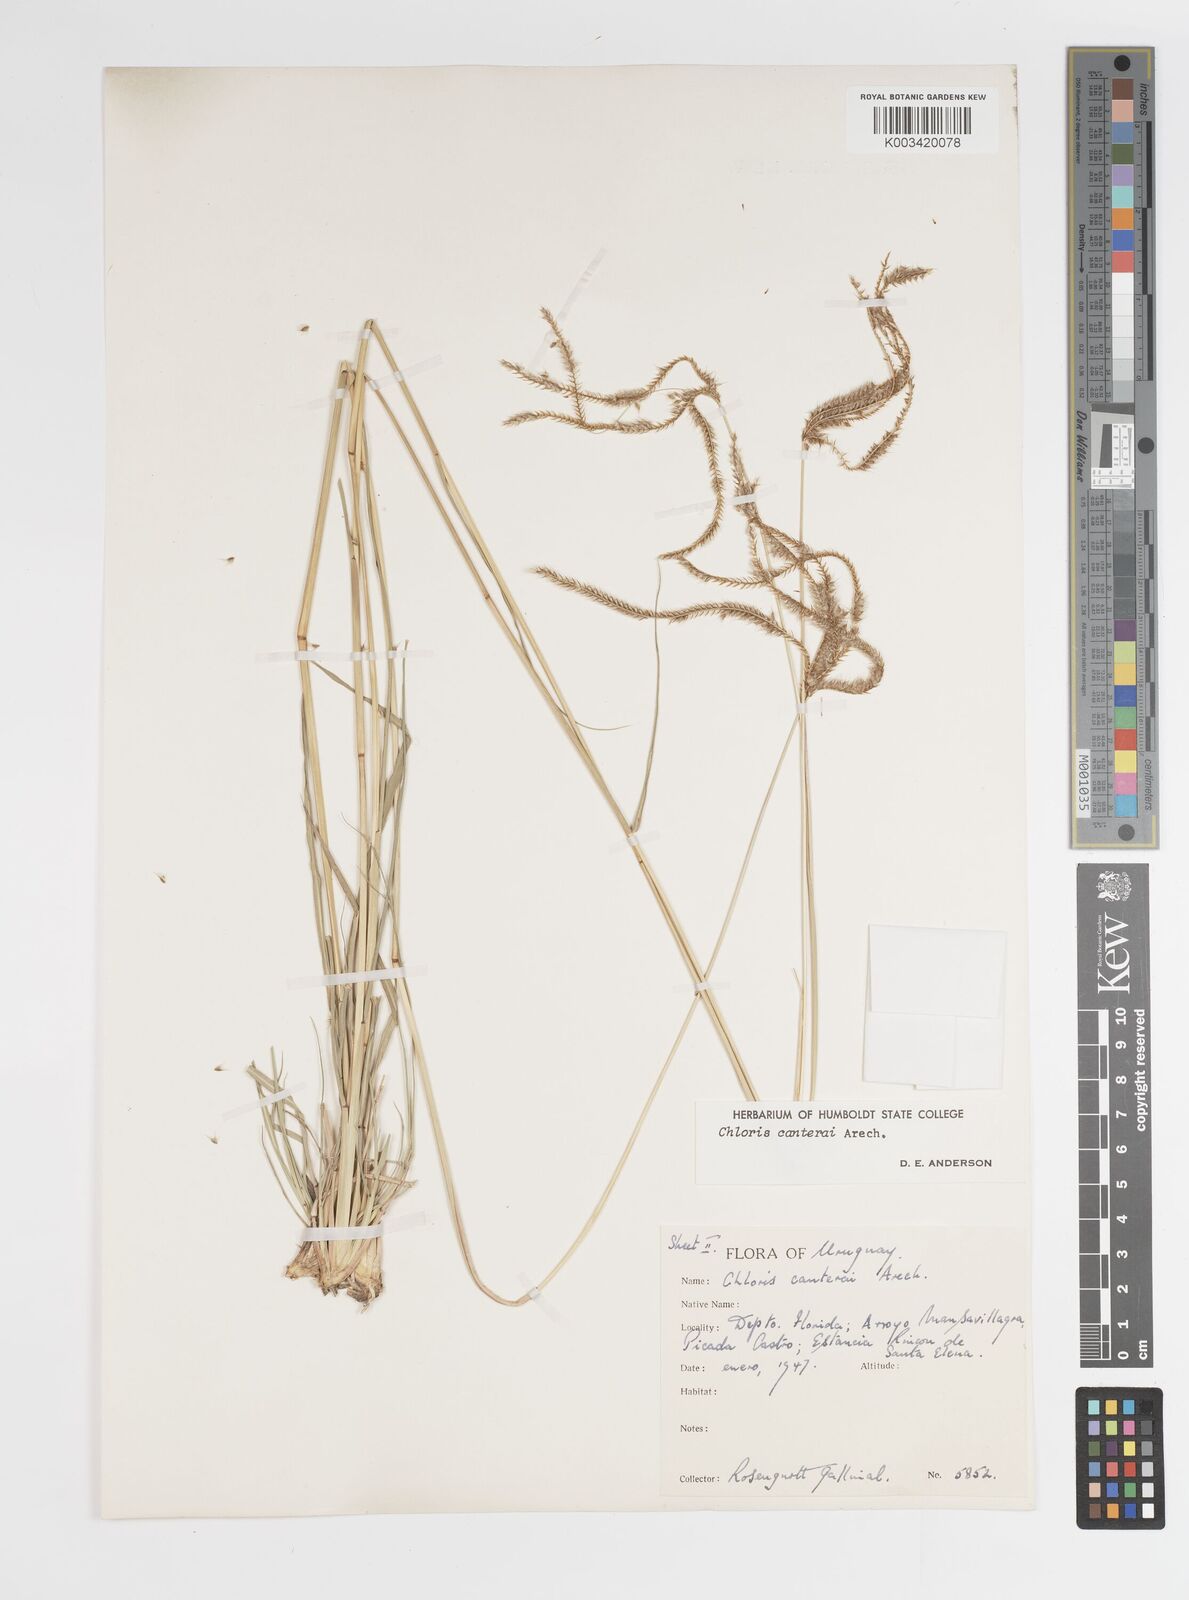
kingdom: Plantae
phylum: Tracheophyta
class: Liliopsida
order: Poales
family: Poaceae
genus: Stapfochloa
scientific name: Stapfochloa canterae
